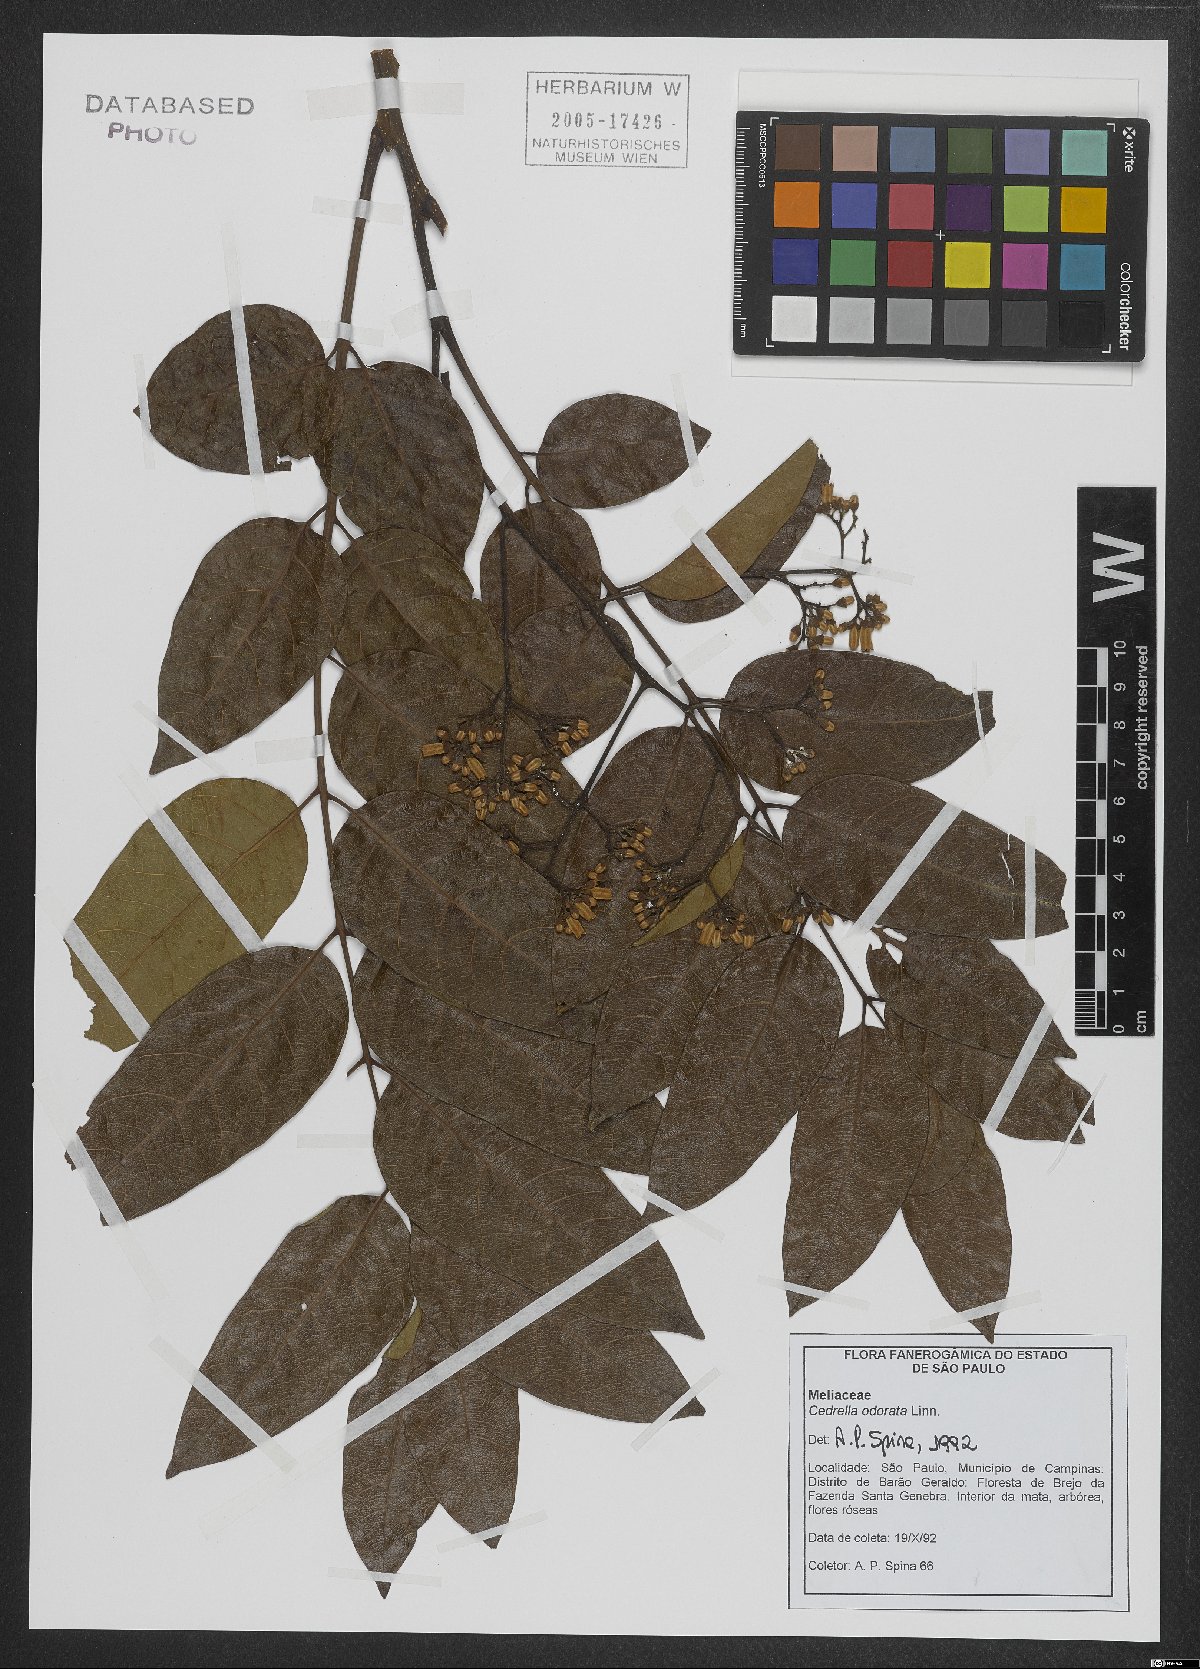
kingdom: Plantae
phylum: Tracheophyta
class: Magnoliopsida
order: Sapindales
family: Meliaceae
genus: Cedrela
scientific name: Cedrela odorata
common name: Red cedar
